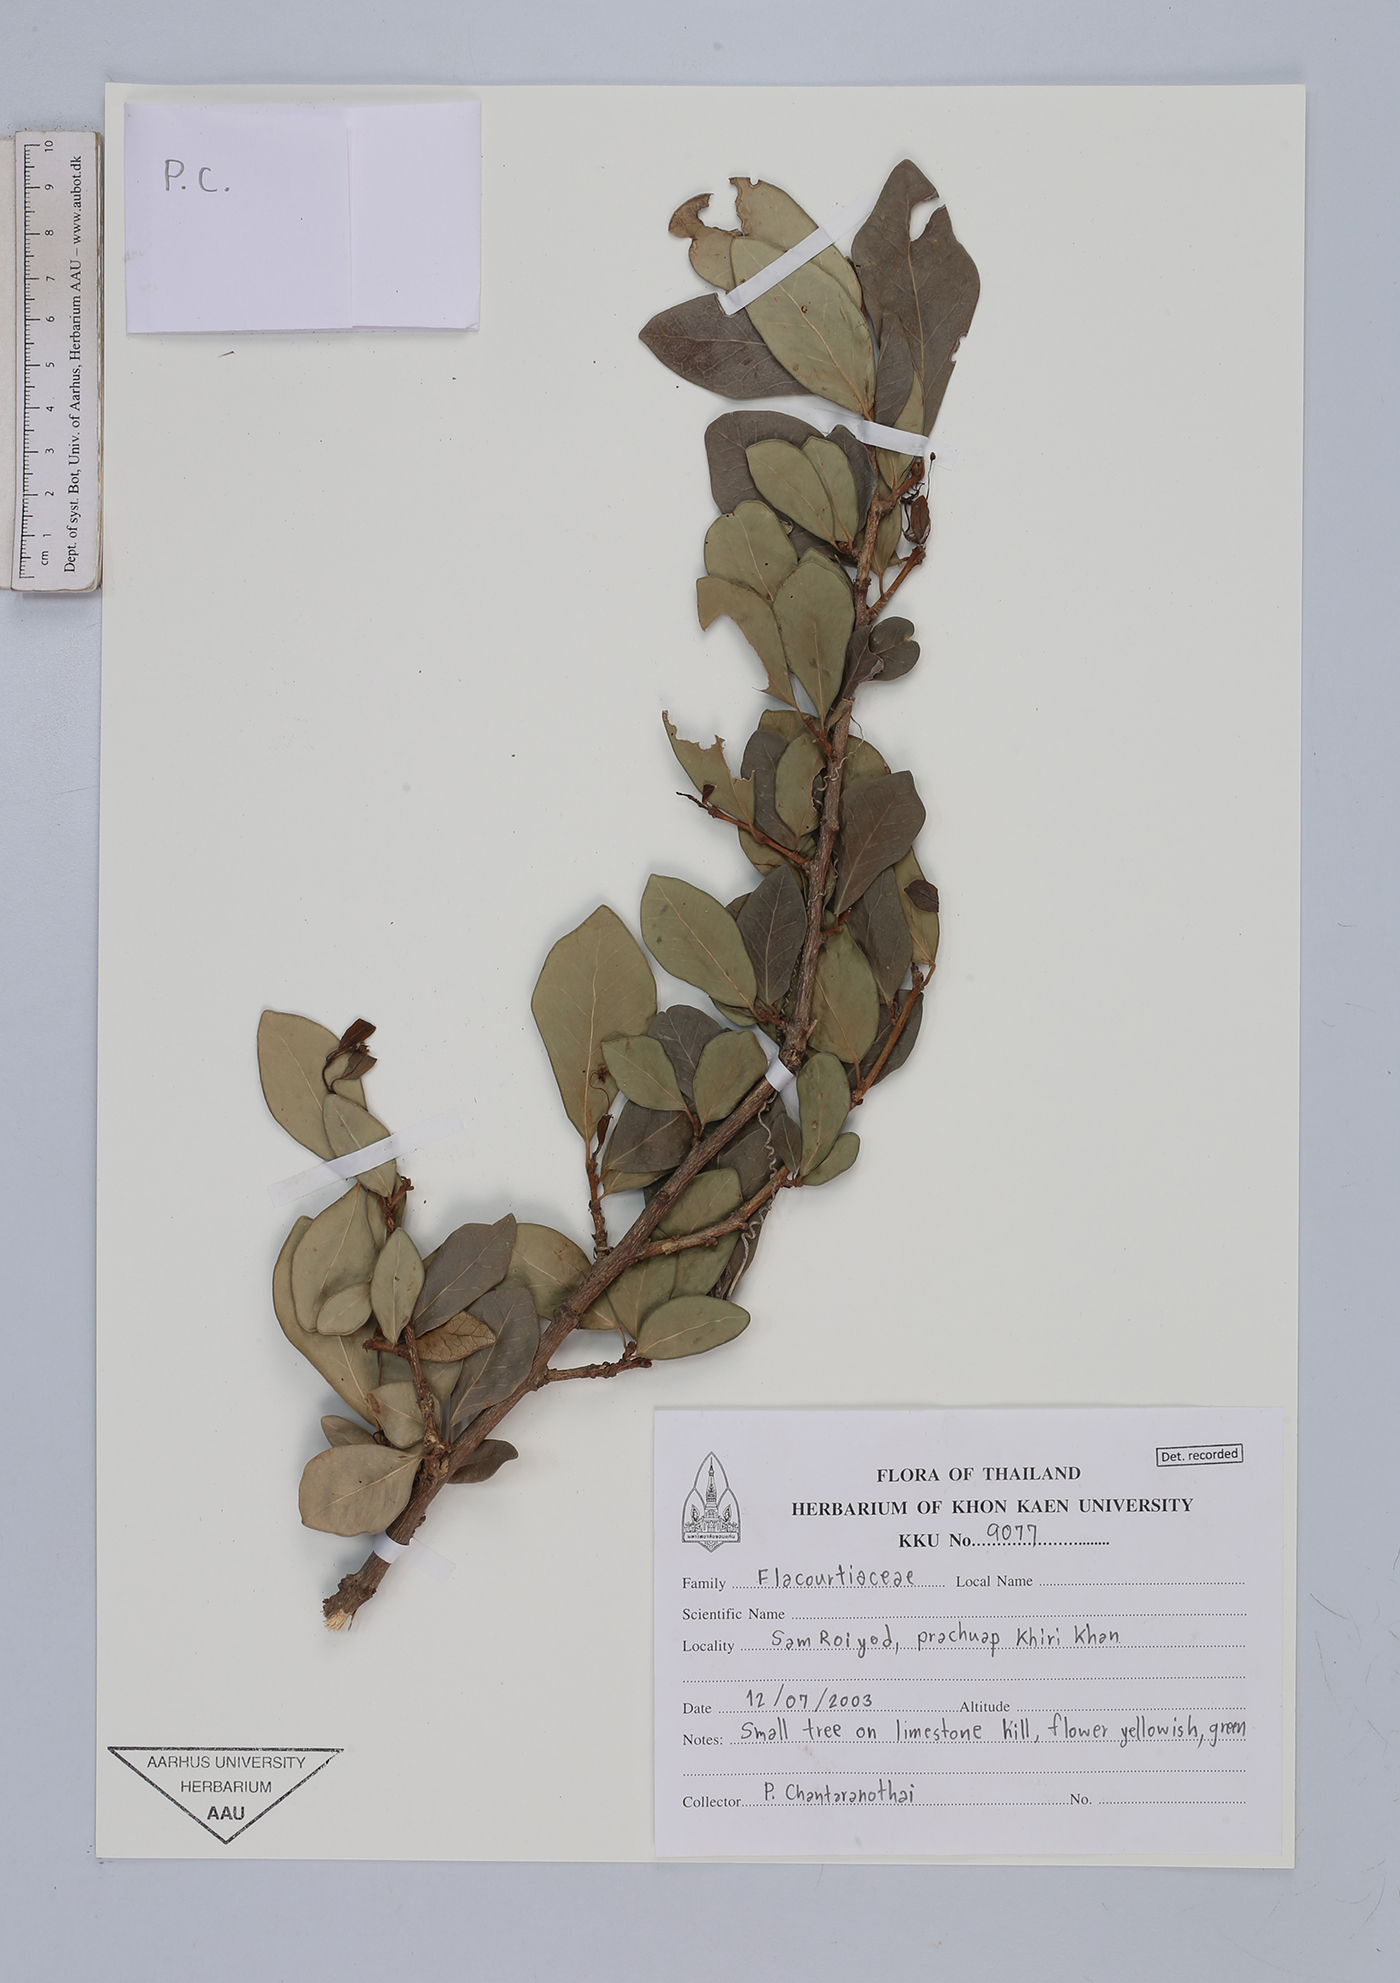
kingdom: Plantae
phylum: Tracheophyta
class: Magnoliopsida
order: Malpighiales
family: Flacourtiaceae
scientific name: Flacourtiaceae
